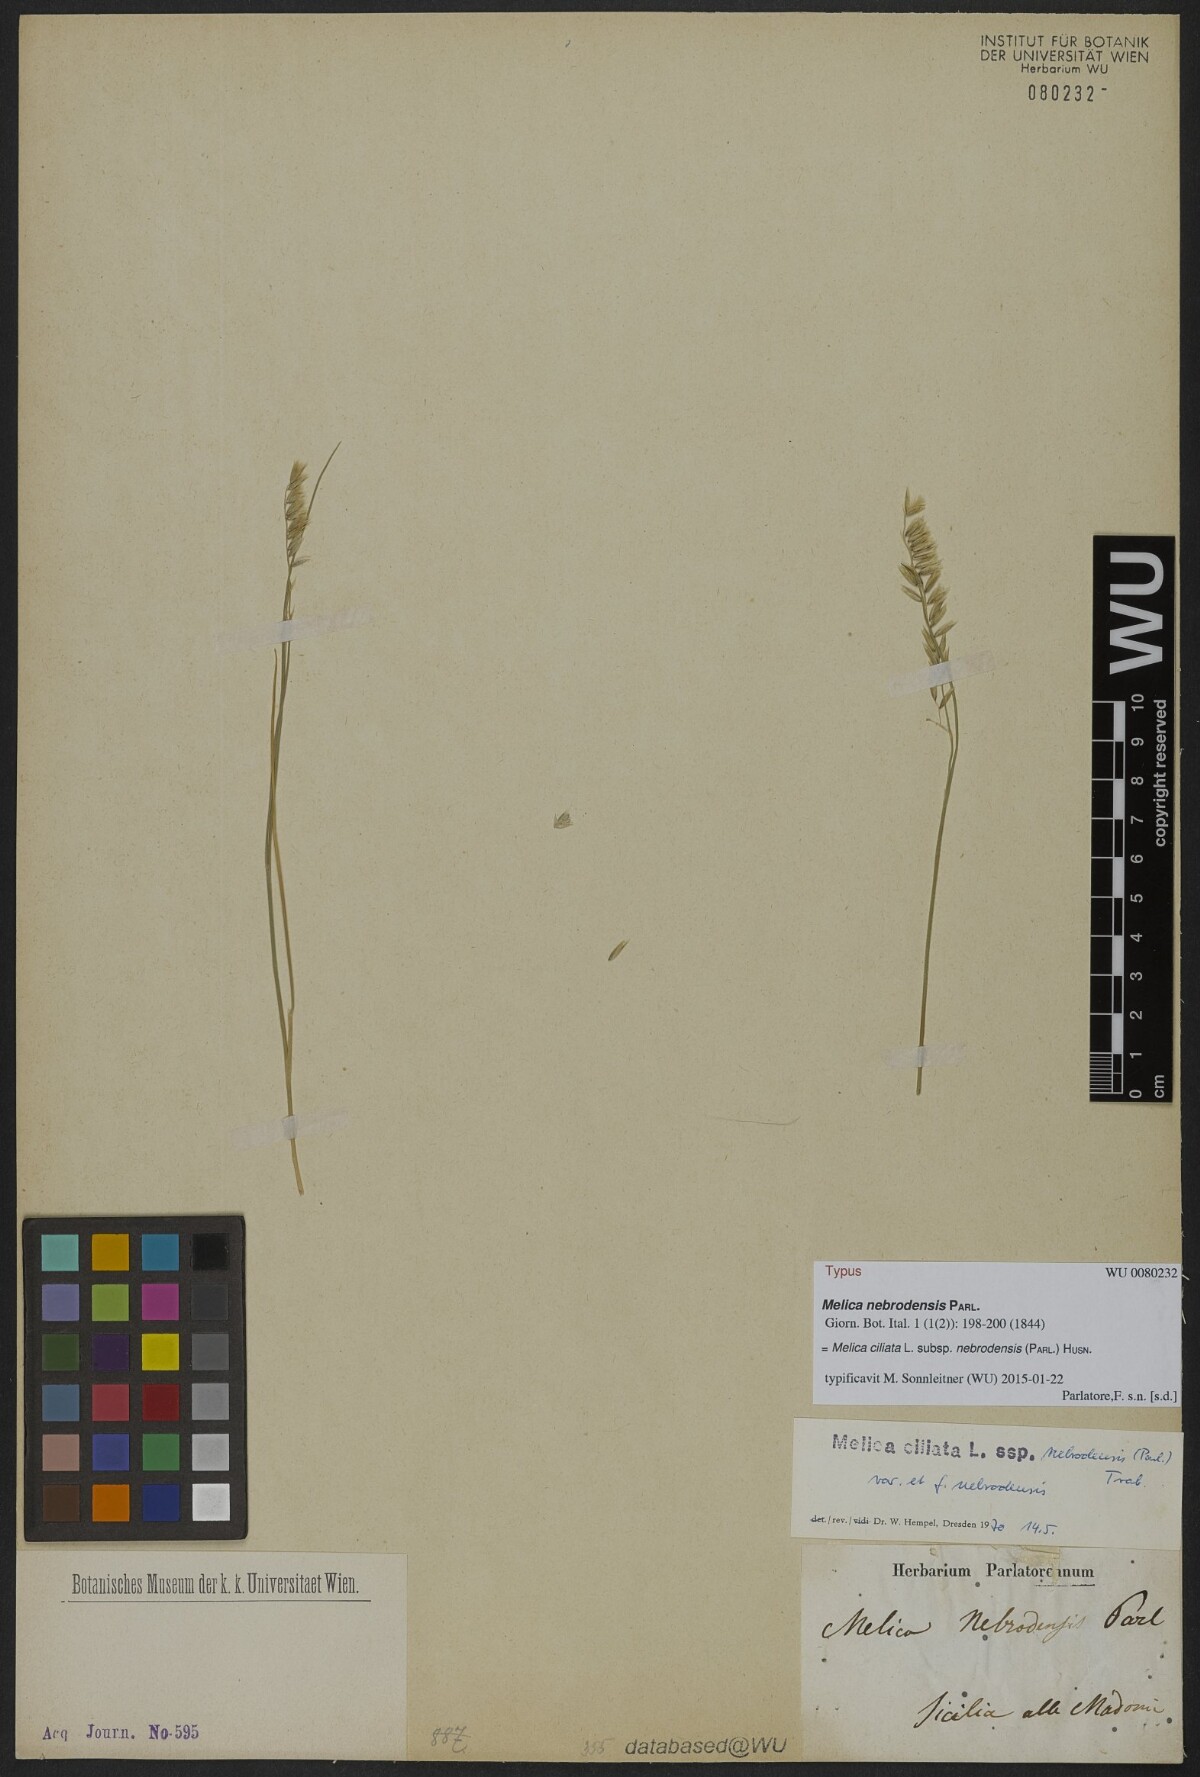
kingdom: Plantae
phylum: Tracheophyta
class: Liliopsida
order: Poales
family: Poaceae
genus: Melica
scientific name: Melica ciliata
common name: Hairy melicgrass
